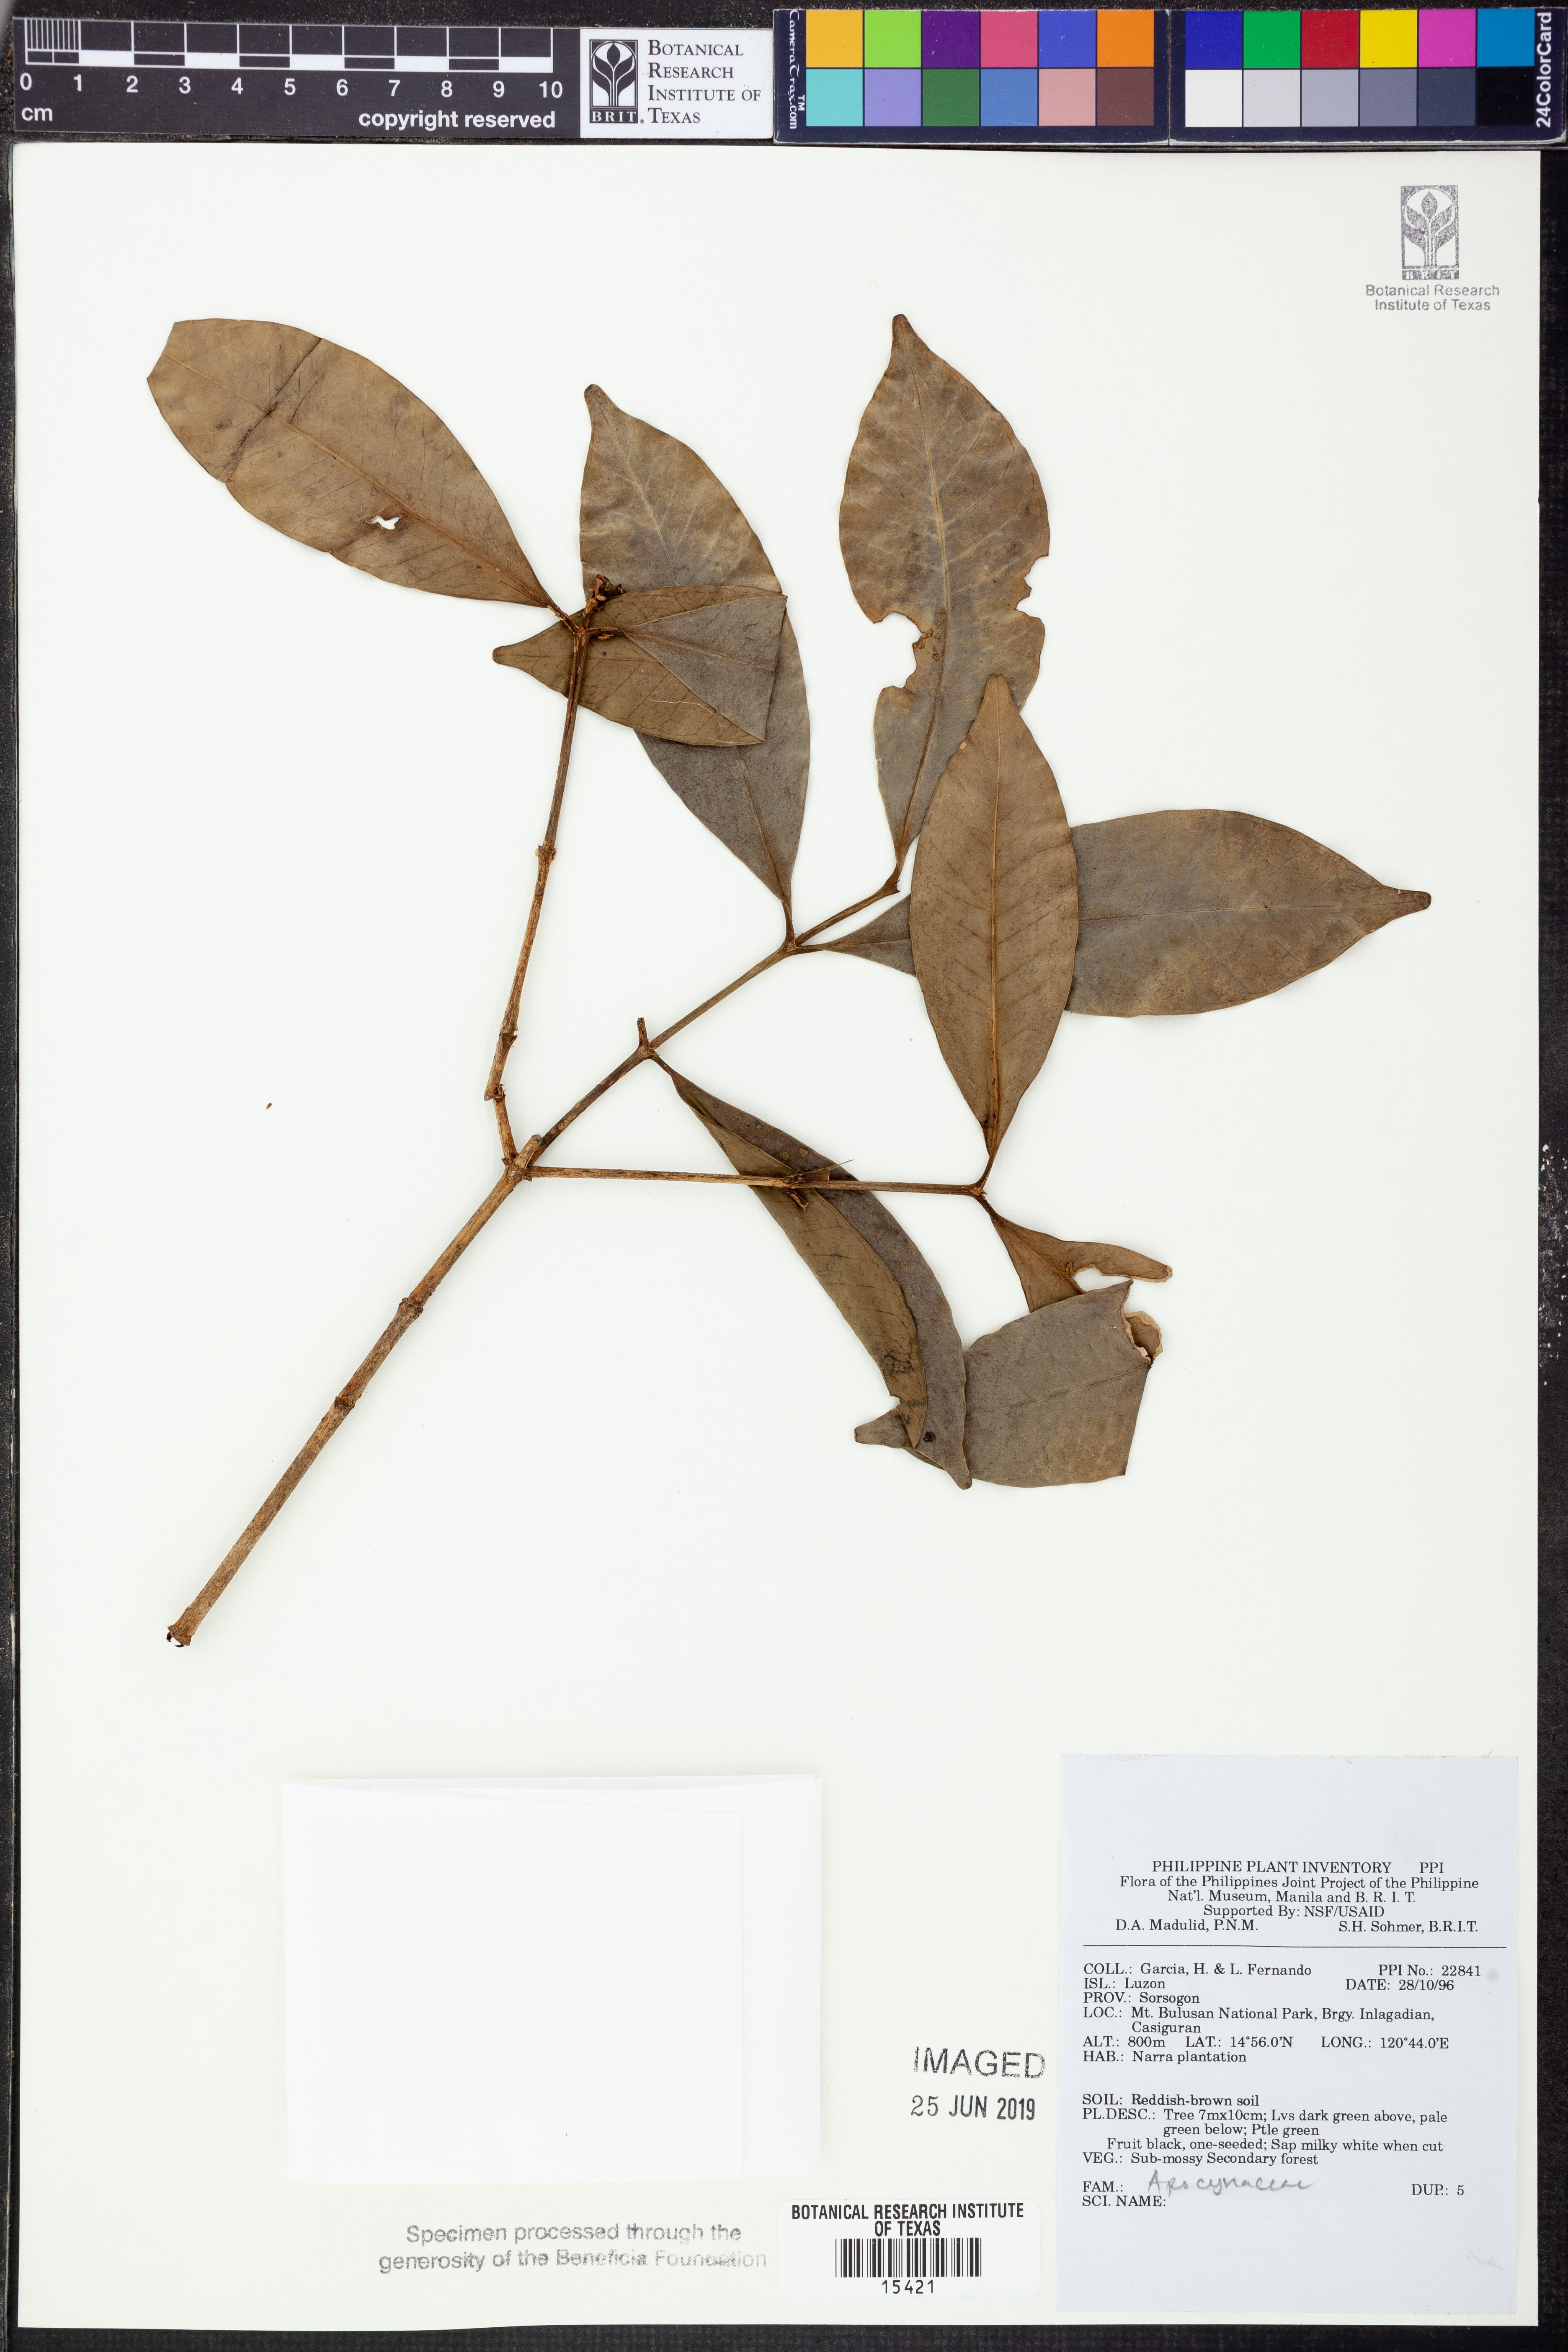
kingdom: Plantae
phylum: Tracheophyta
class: Magnoliopsida
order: Gentianales
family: Apocynaceae
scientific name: Apocynaceae
